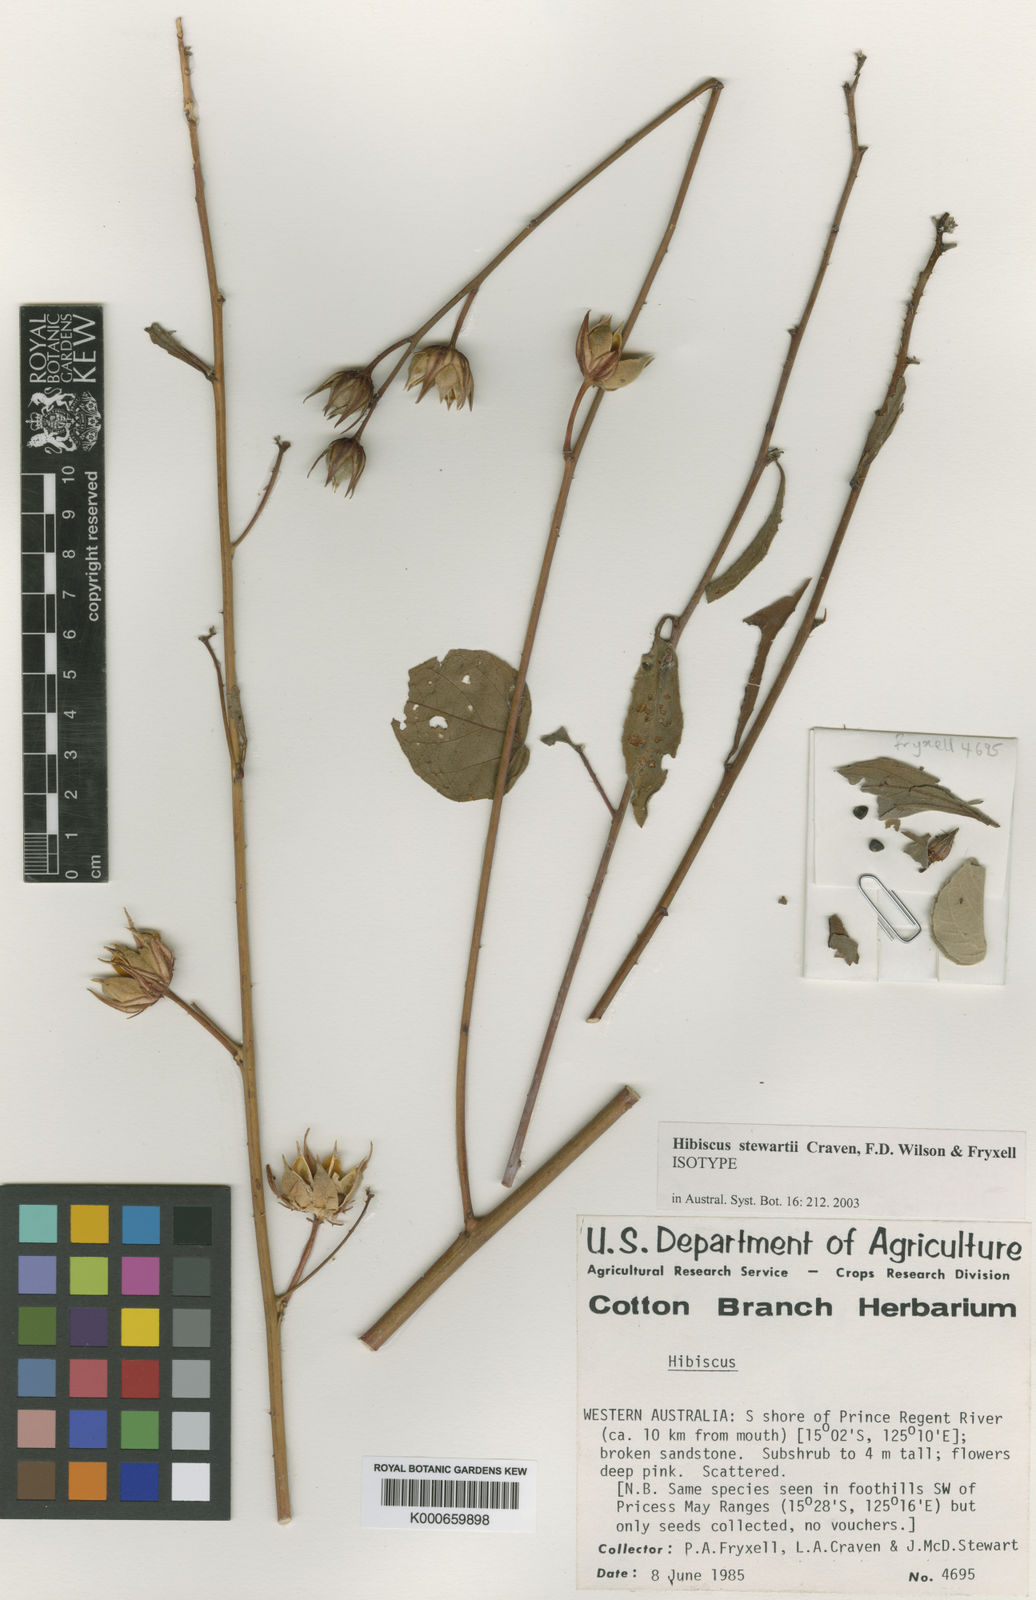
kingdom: Plantae
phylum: Tracheophyta
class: Magnoliopsida
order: Malvales
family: Malvaceae
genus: Hibiscus
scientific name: Hibiscus
